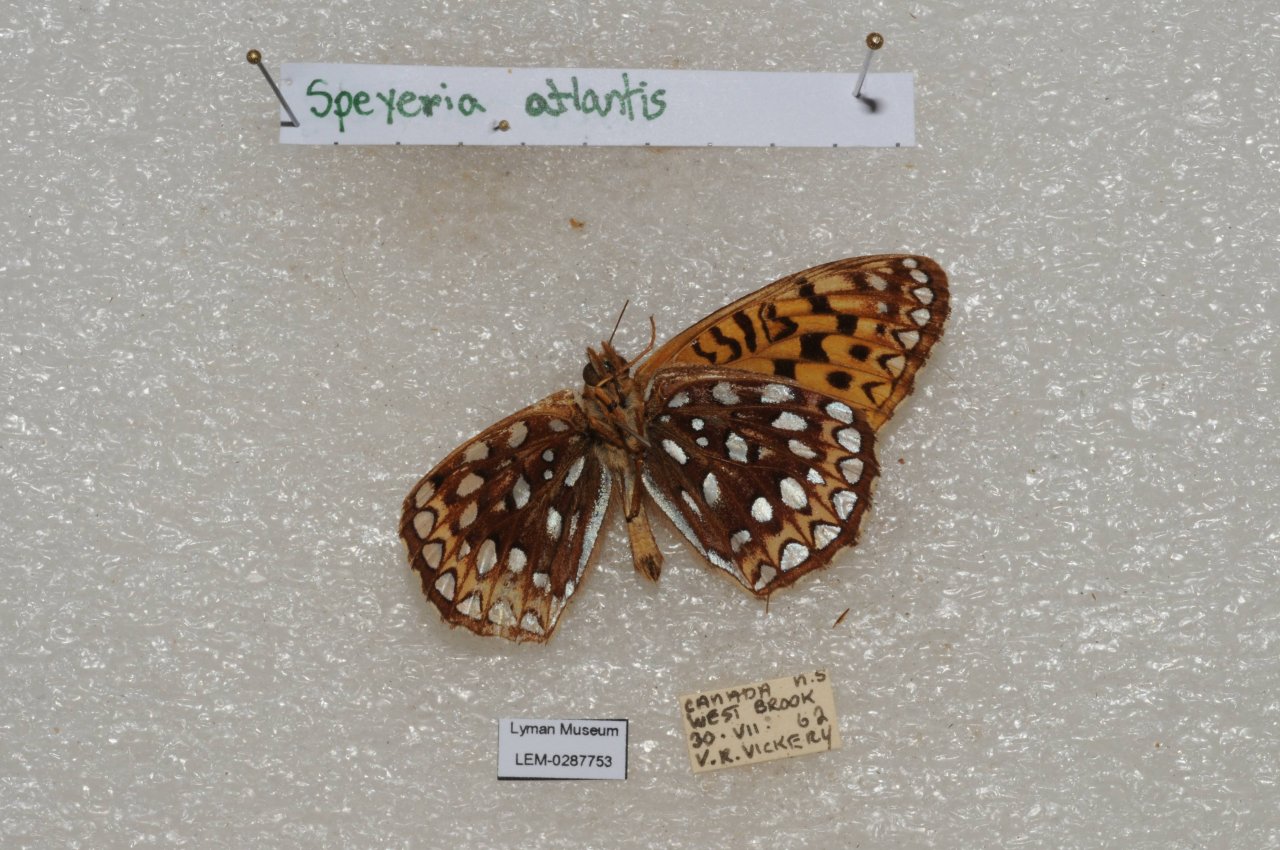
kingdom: Animalia
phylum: Arthropoda
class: Insecta
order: Lepidoptera
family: Nymphalidae
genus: Speyeria
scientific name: Speyeria atlantis
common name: Atlantis Fritillary
